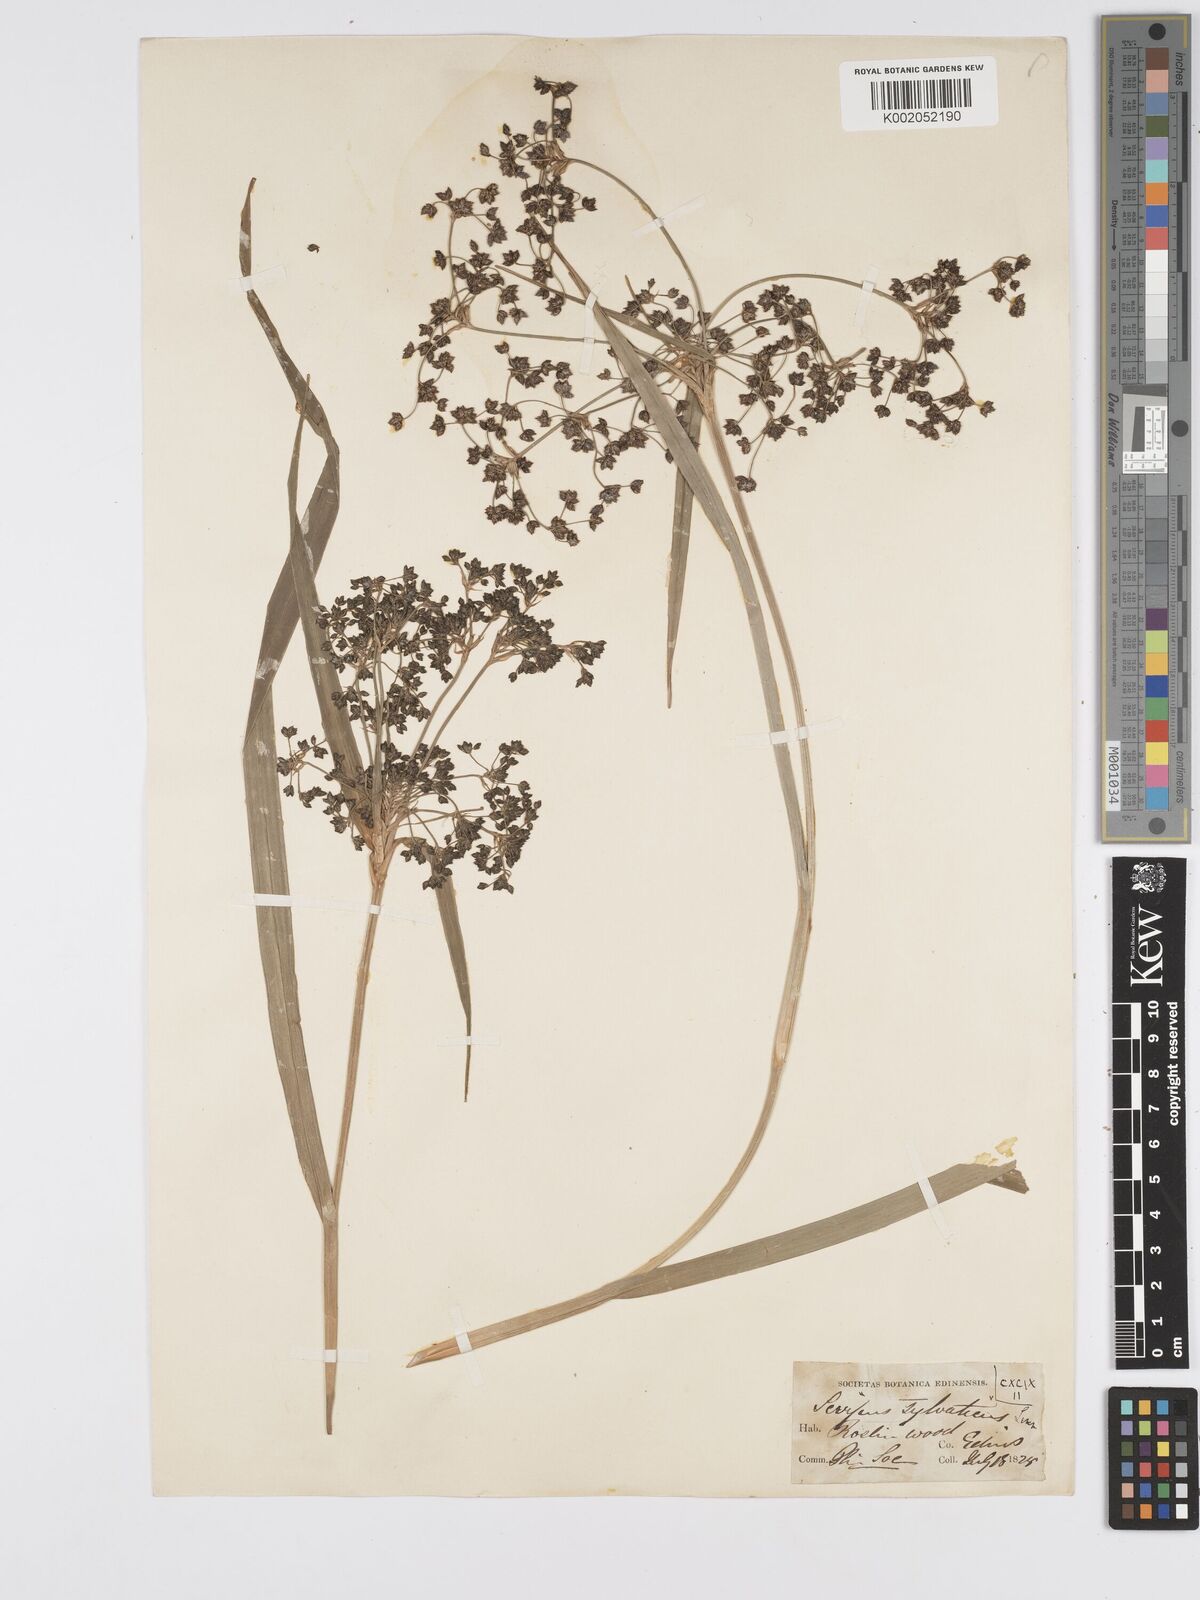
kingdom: Plantae
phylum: Tracheophyta
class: Liliopsida
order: Poales
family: Cyperaceae
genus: Scirpus
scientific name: Scirpus sylvaticus
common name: Wood club-rush
